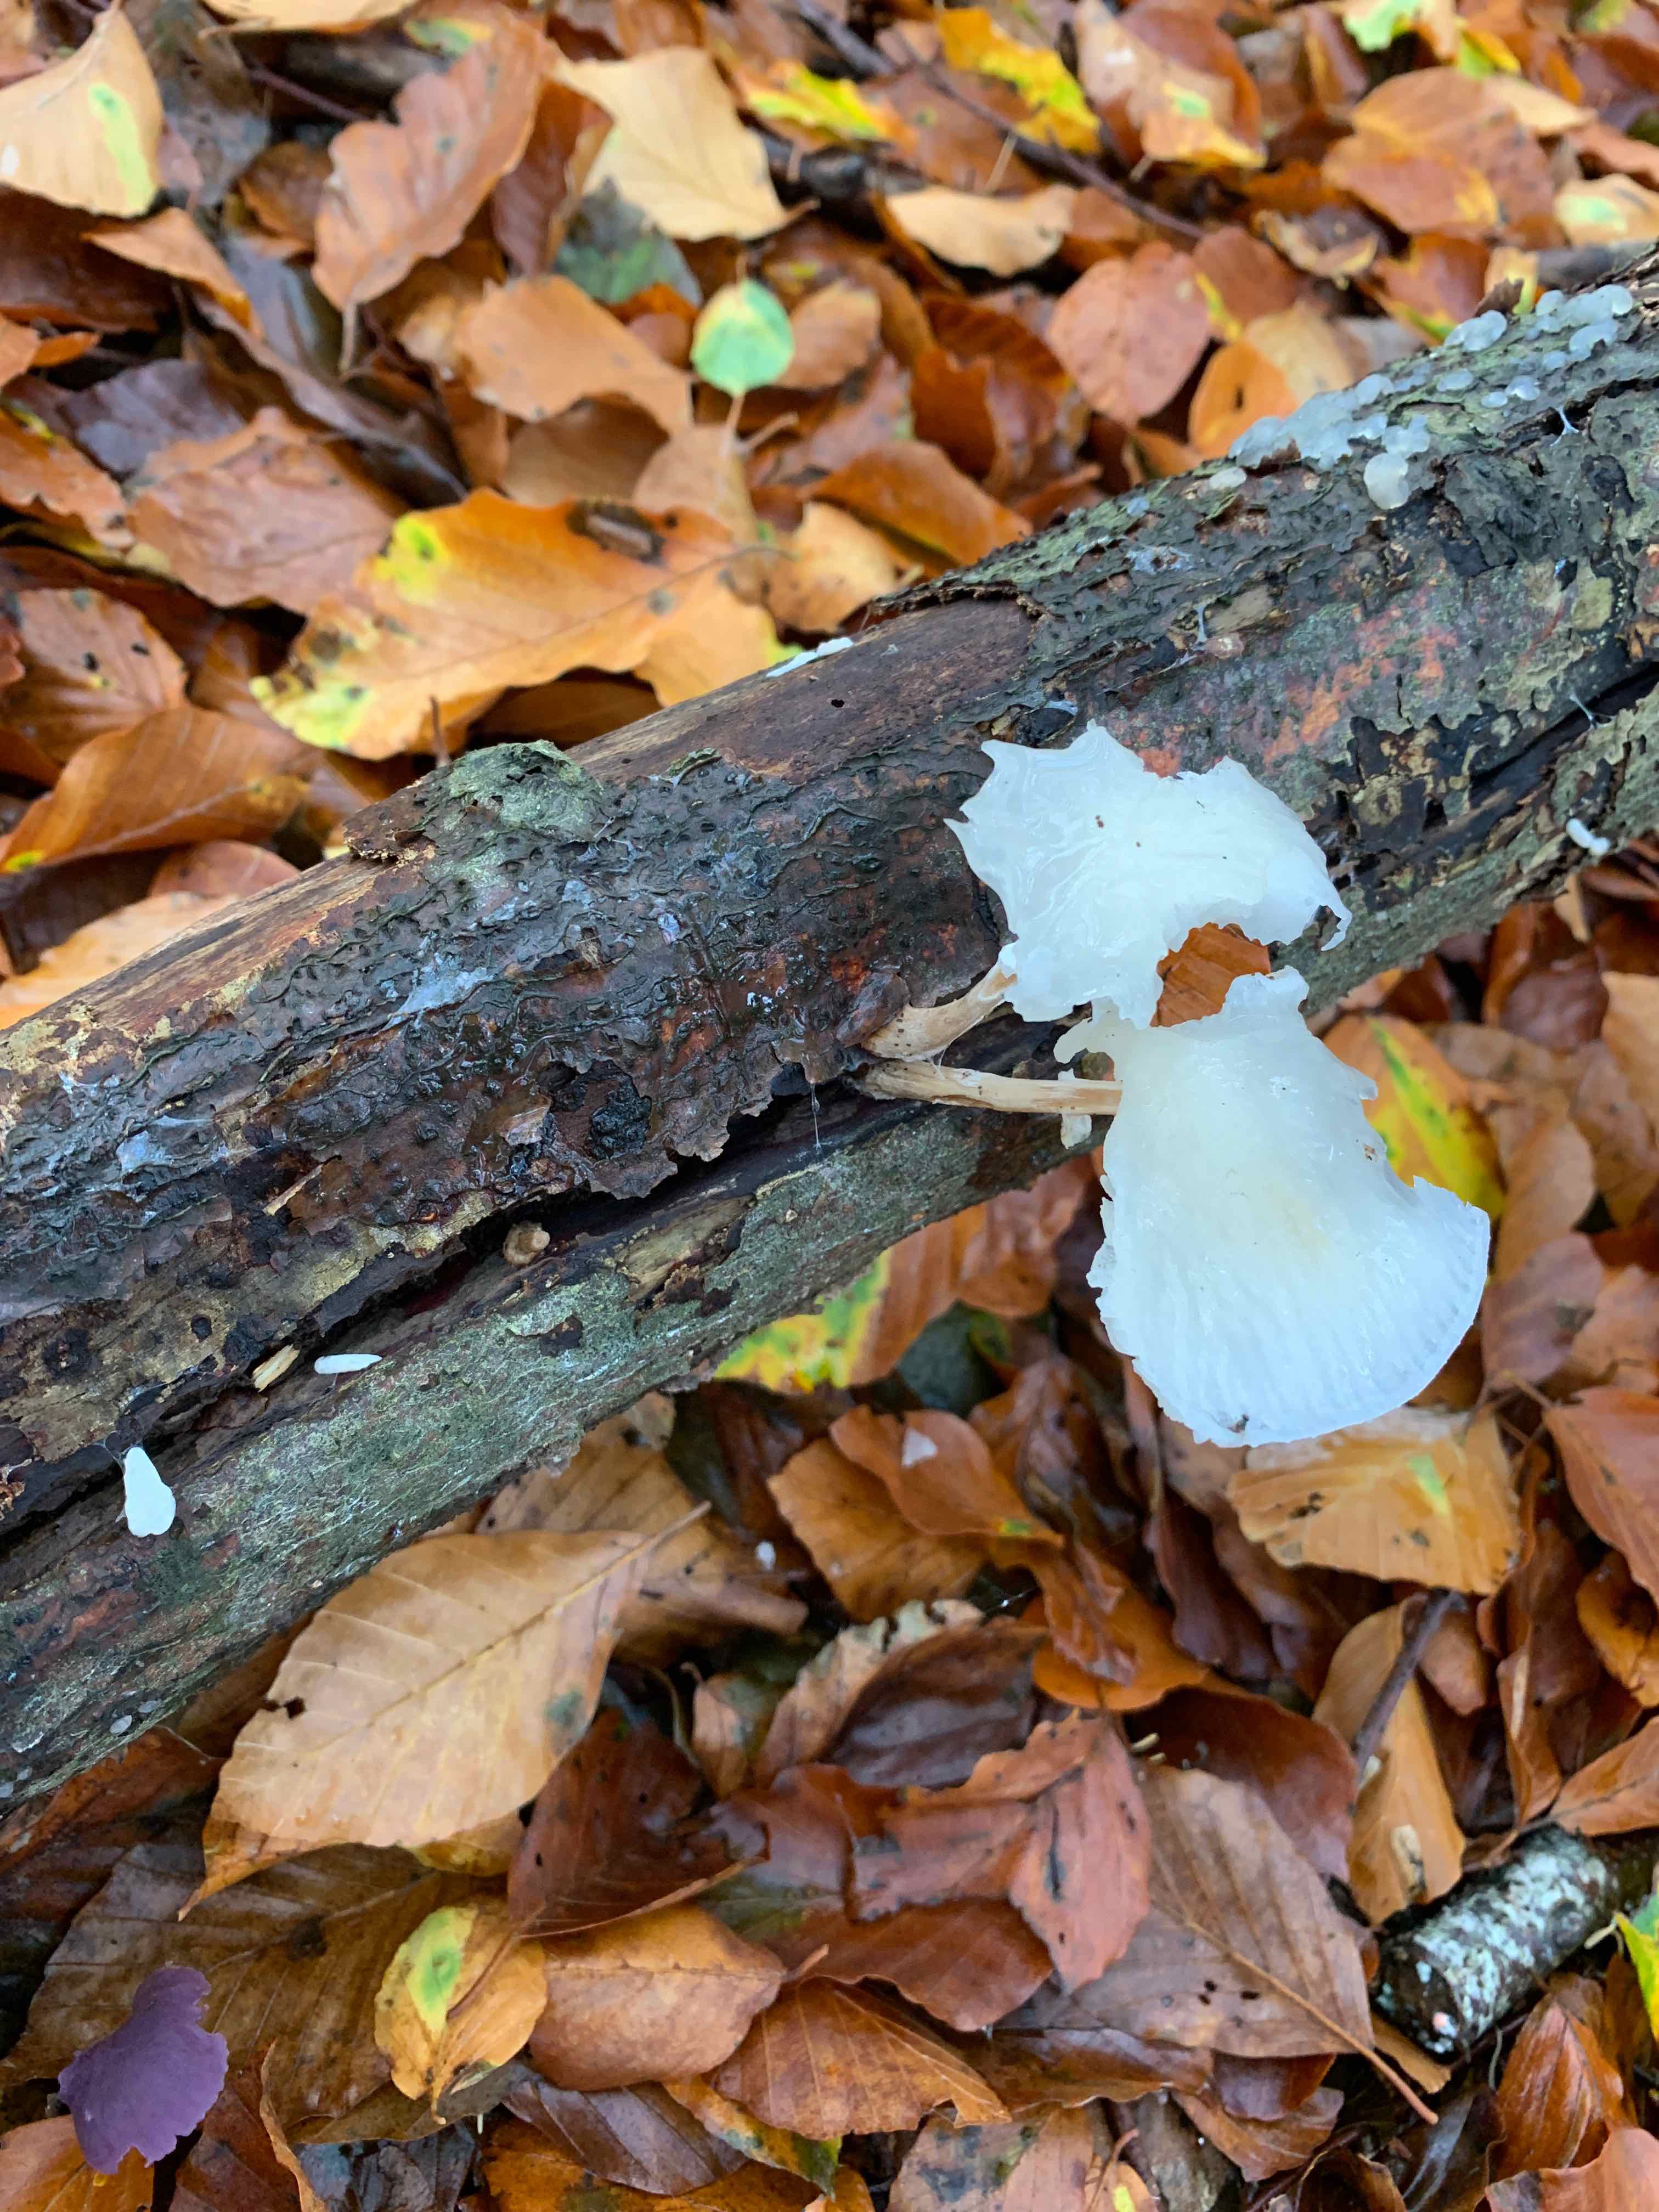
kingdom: Fungi
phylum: Basidiomycota
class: Agaricomycetes
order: Agaricales
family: Physalacriaceae
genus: Mucidula
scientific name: Mucidula mucida
